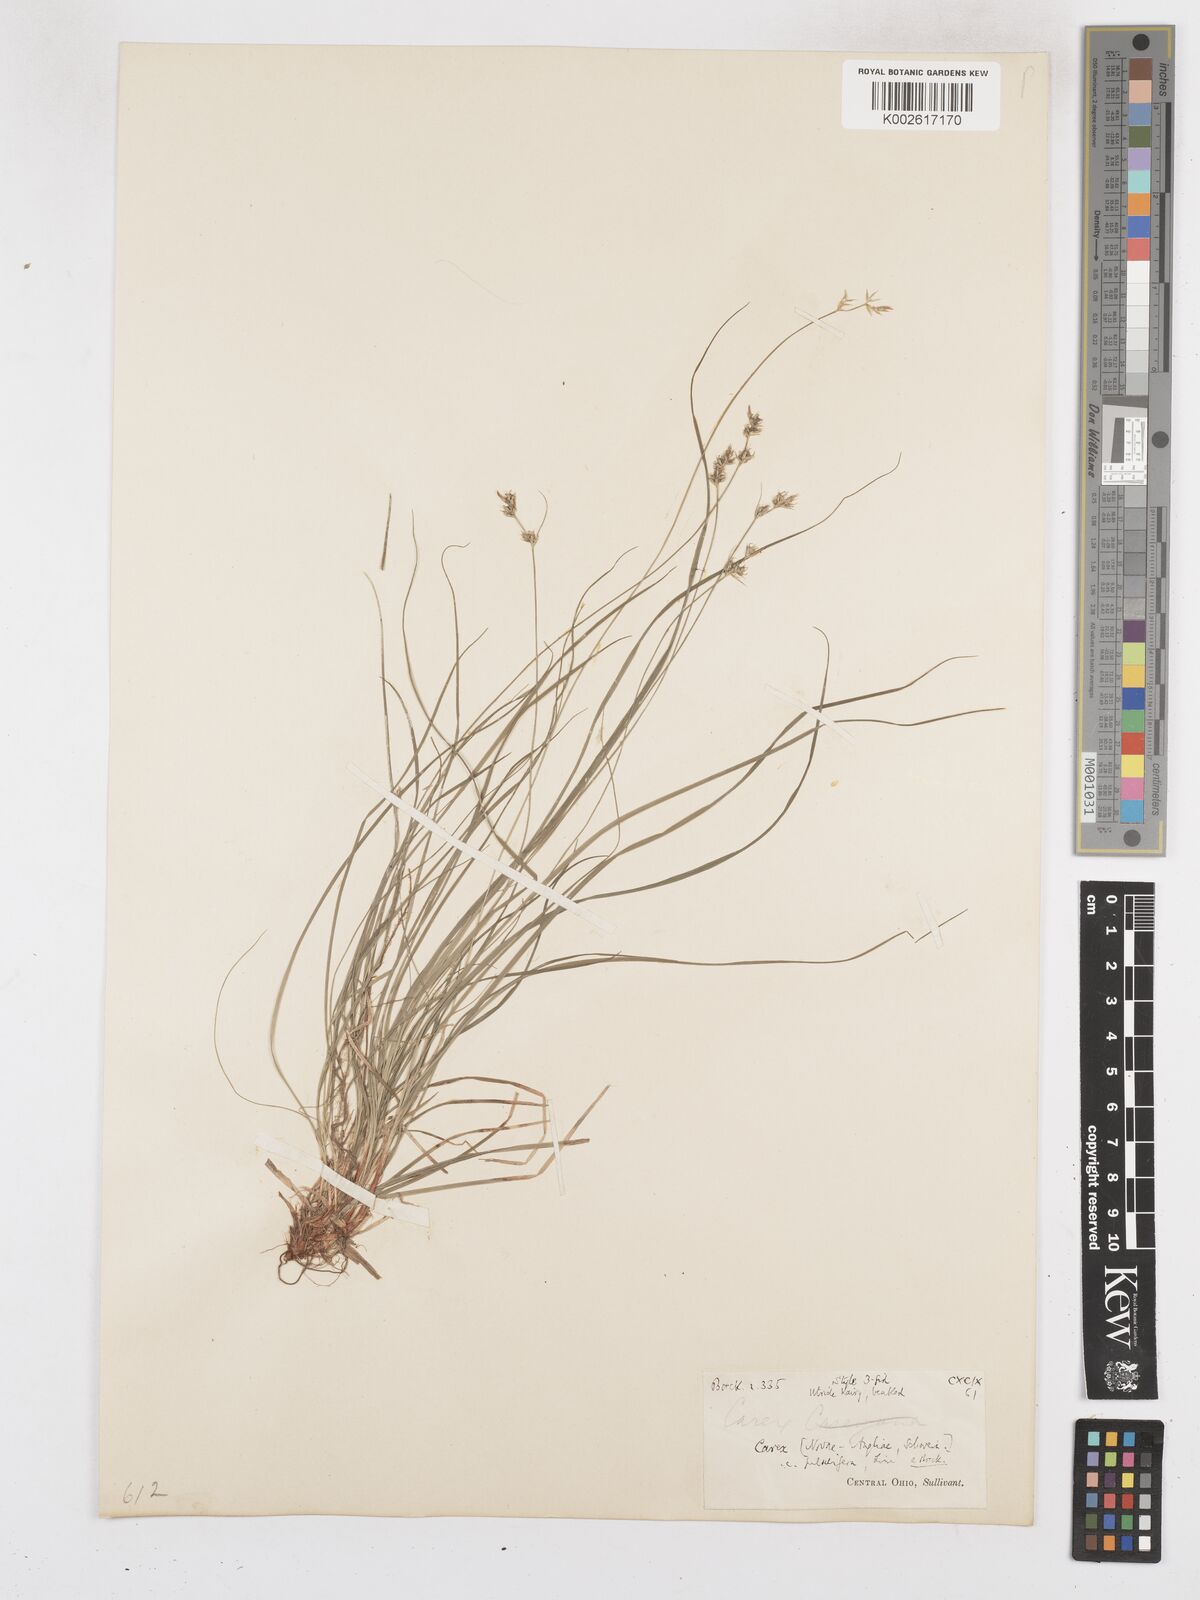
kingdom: Plantae
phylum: Tracheophyta
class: Liliopsida
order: Poales
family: Cyperaceae
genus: Carex
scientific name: Carex novae-angliae
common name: New england sedge
